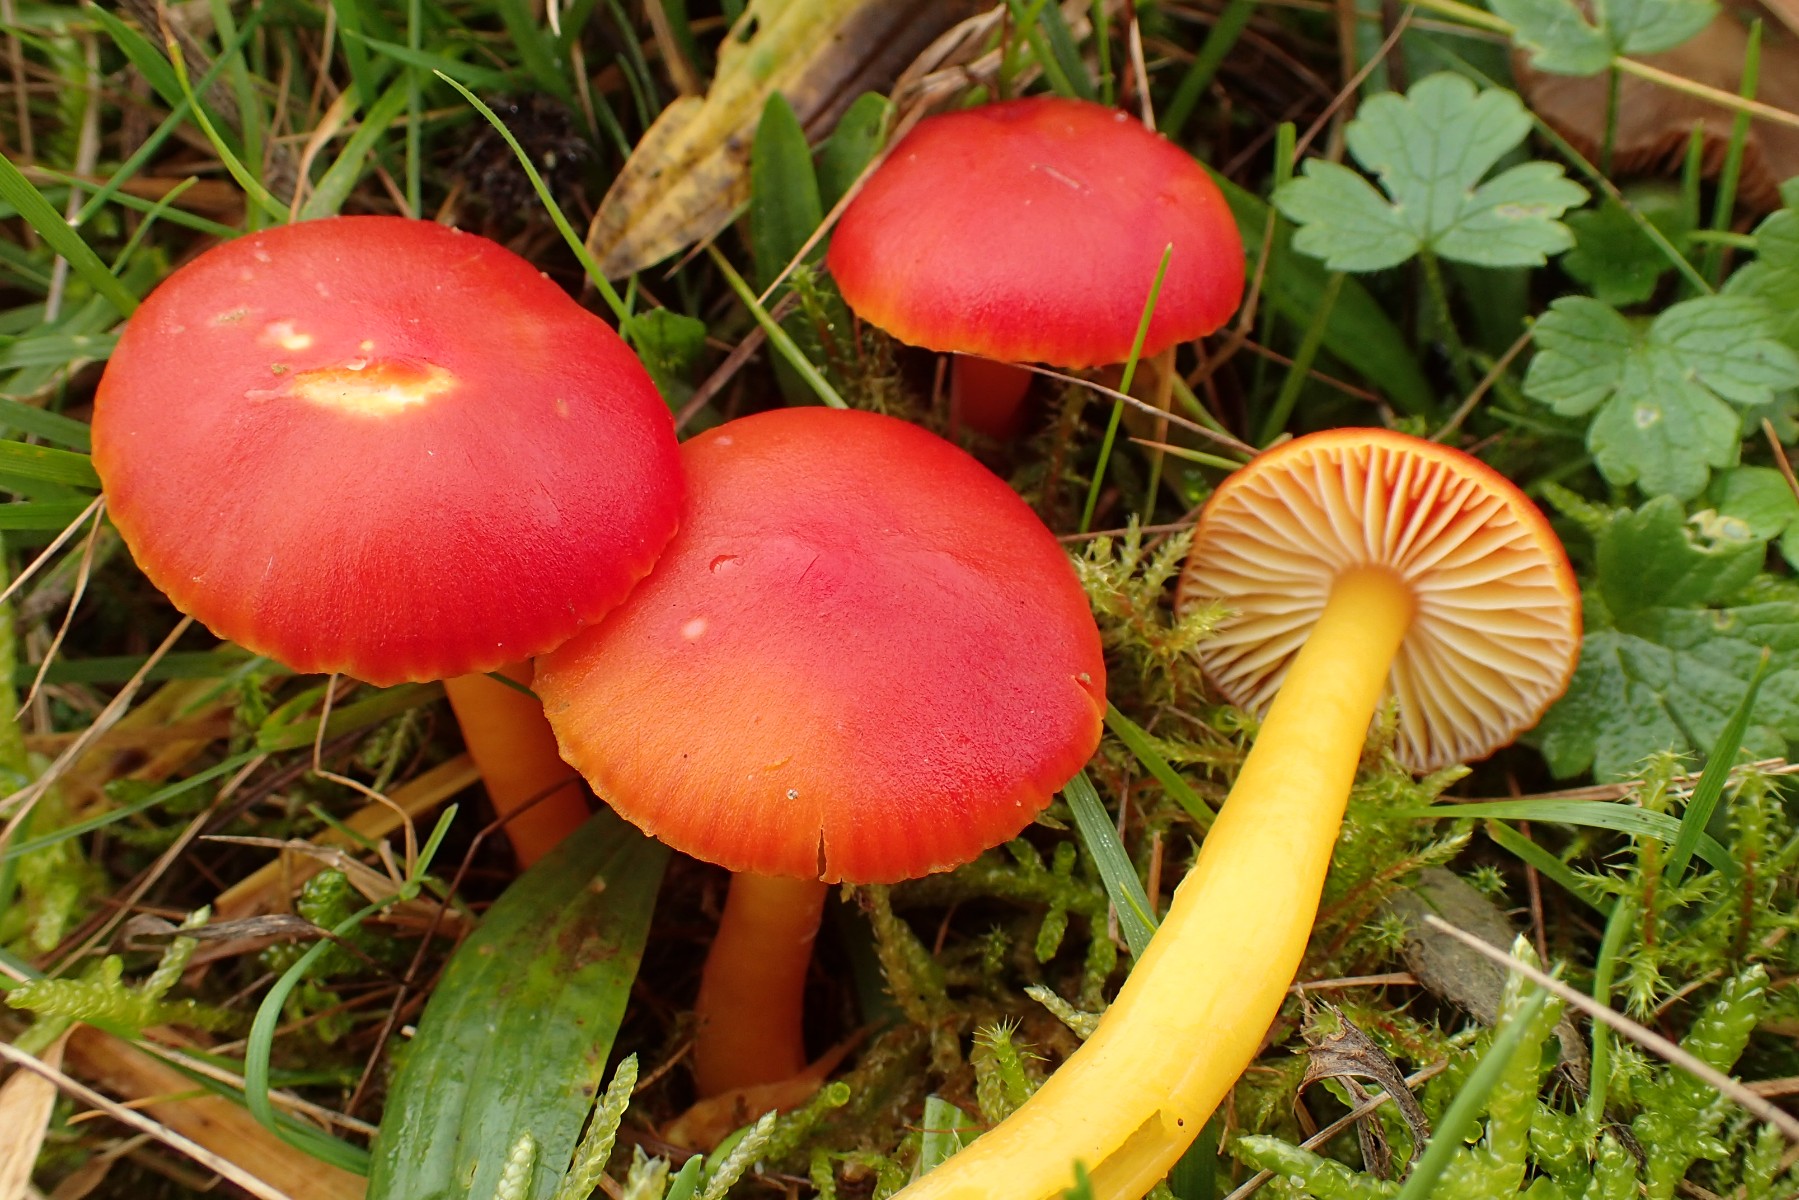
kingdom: Fungi
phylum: Basidiomycota
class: Agaricomycetes
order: Agaricales
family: Hygrophoraceae
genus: Hygrocybe
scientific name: Hygrocybe coccinea
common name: cinnober-vokshat
